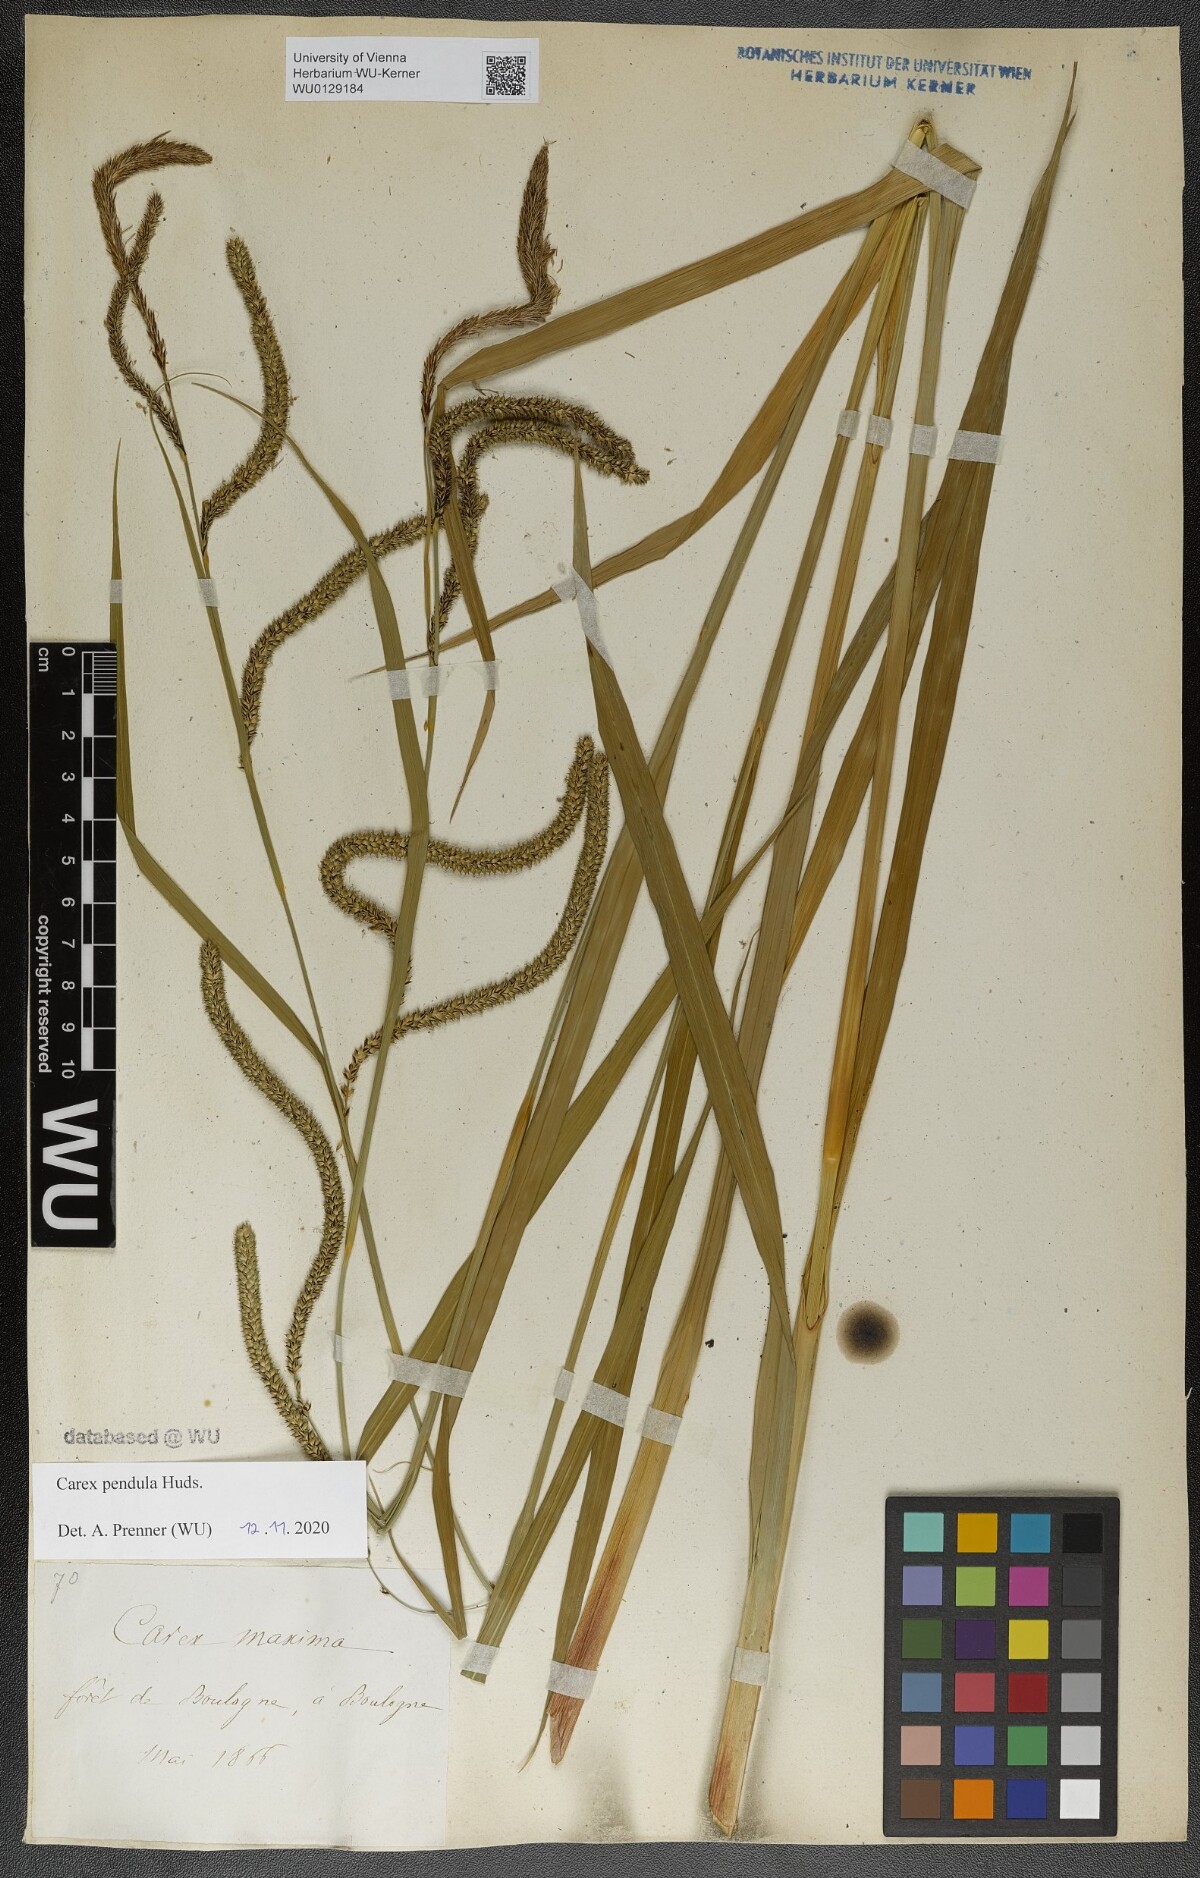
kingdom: Plantae
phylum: Tracheophyta
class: Liliopsida
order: Poales
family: Cyperaceae
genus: Carex
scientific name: Carex pendula
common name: Pendulous sedge
